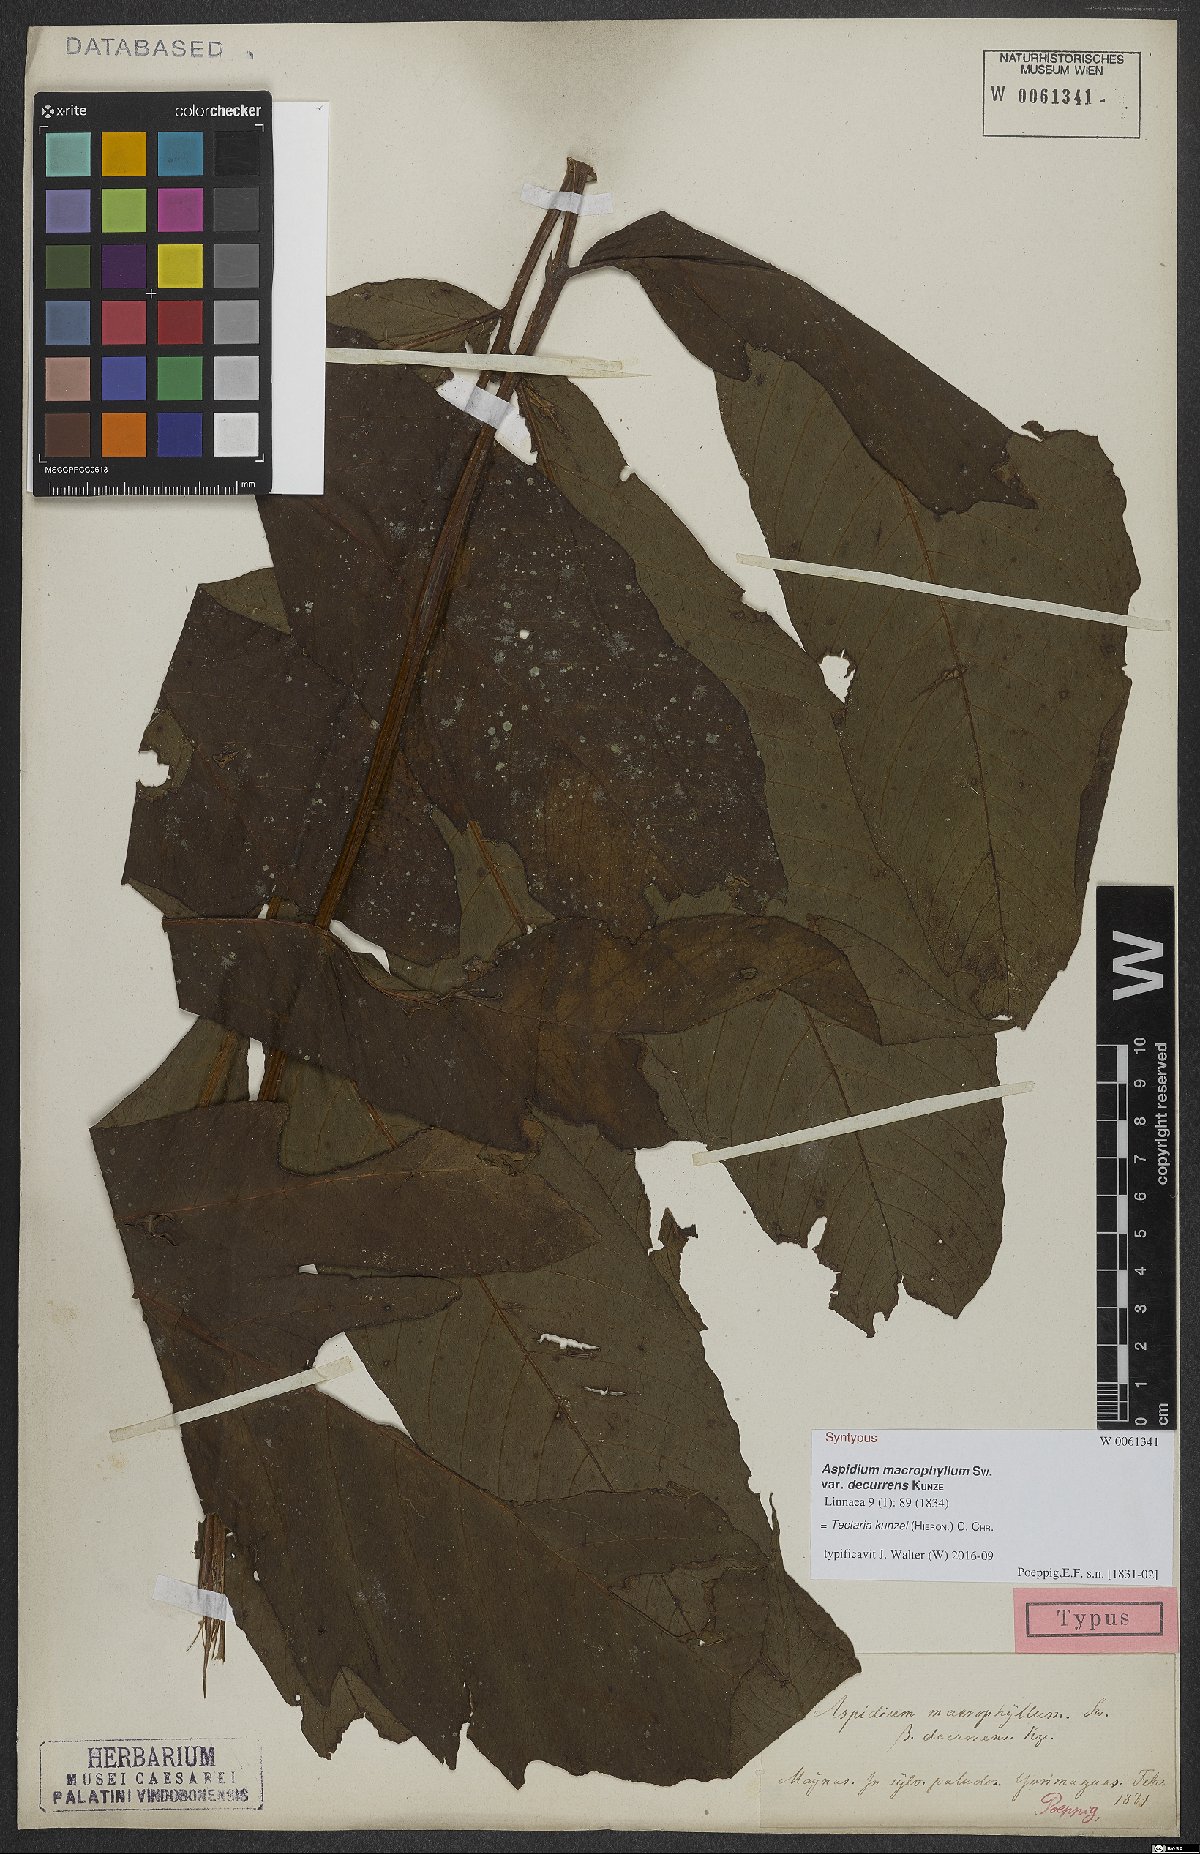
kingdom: Plantae
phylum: Tracheophyta
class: Polypodiopsida
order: Polypodiales
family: Tectariaceae
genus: Tectaria
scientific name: Tectaria kunzei
